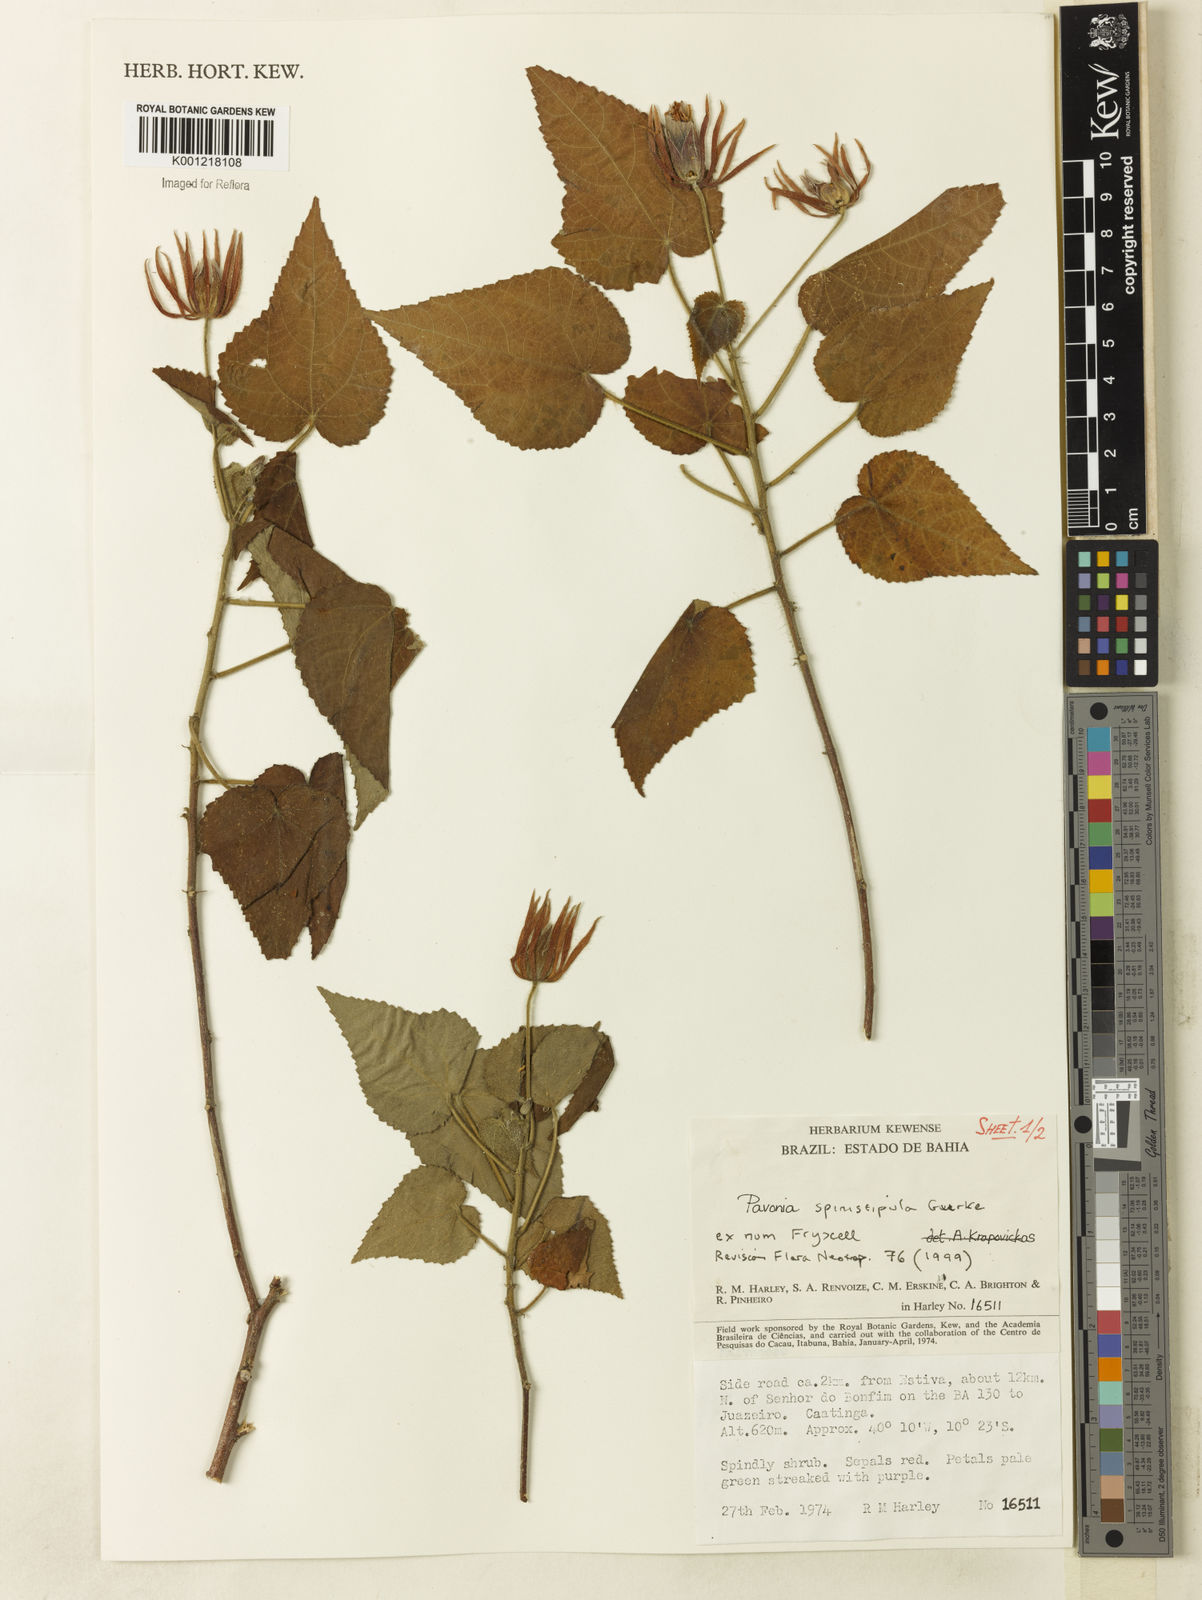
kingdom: Plantae
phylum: Tracheophyta
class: Magnoliopsida
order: Malvales
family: Malvaceae
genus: Pavonia
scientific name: Pavonia
